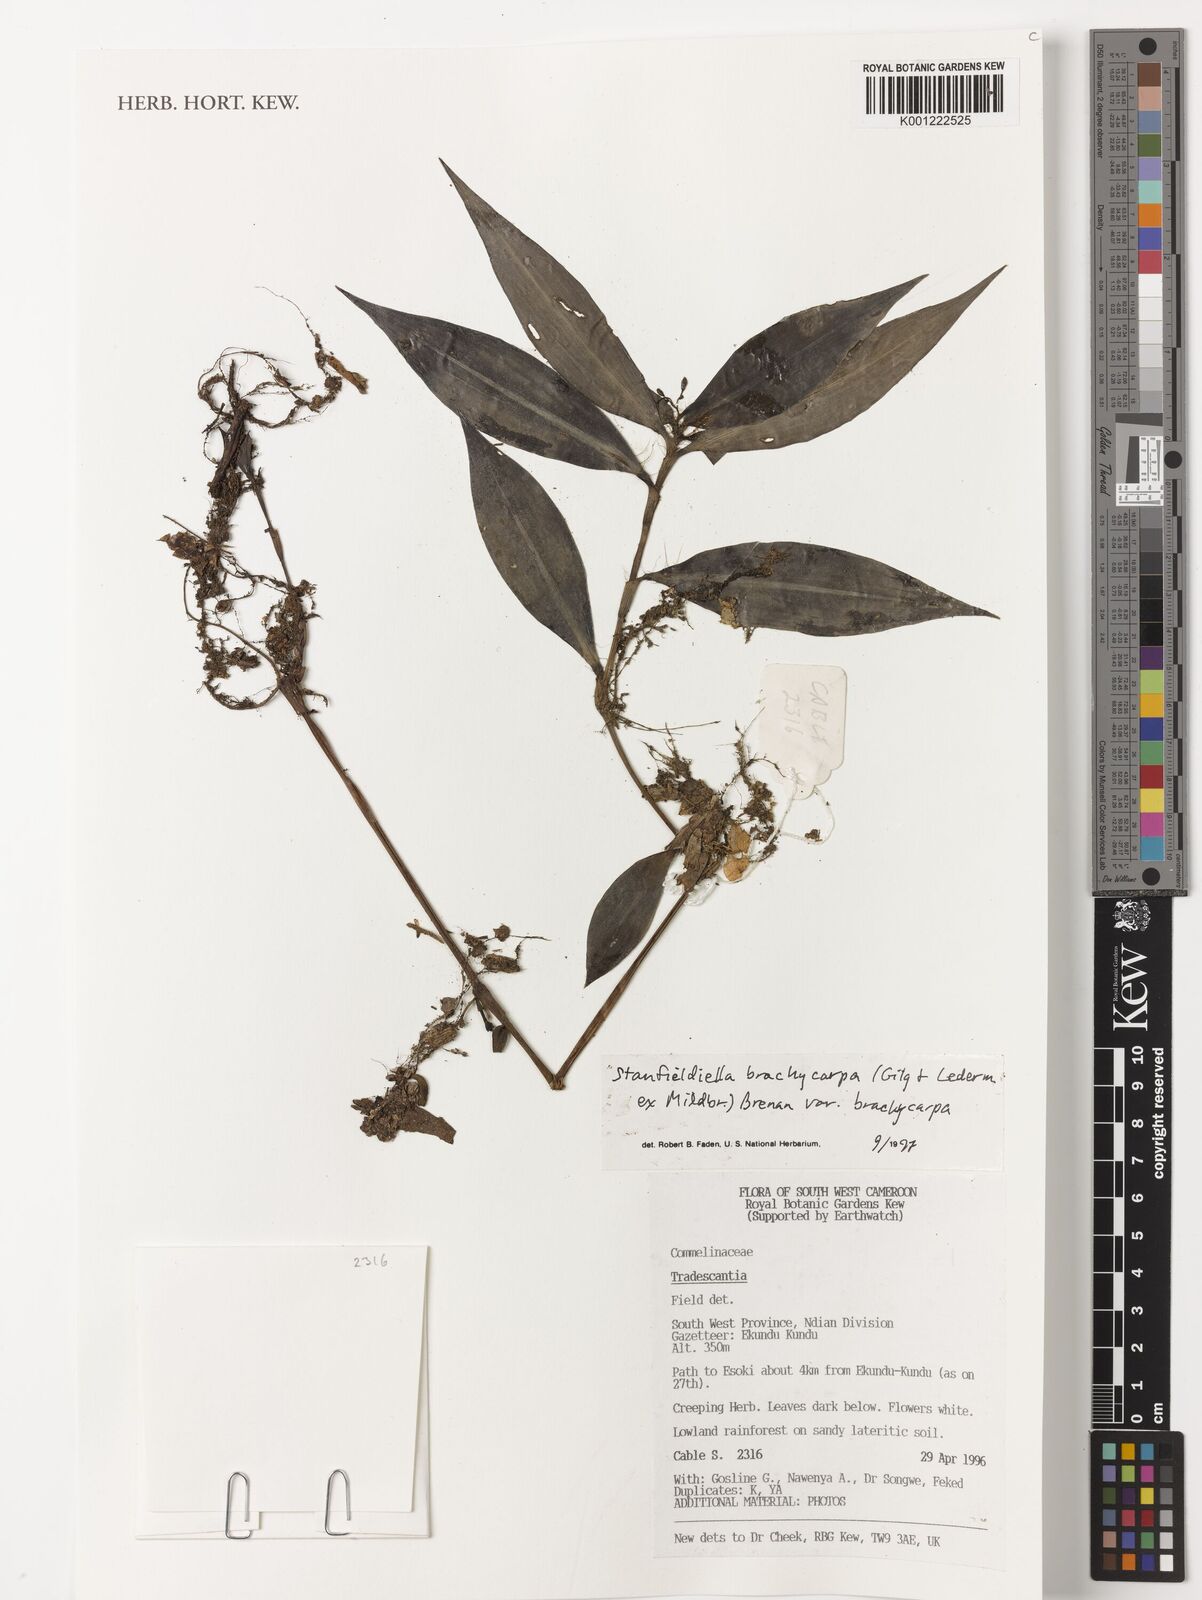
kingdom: Plantae
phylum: Tracheophyta
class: Liliopsida
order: Commelinales
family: Commelinaceae
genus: Stanfieldiella
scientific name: Stanfieldiella brachycarpa
